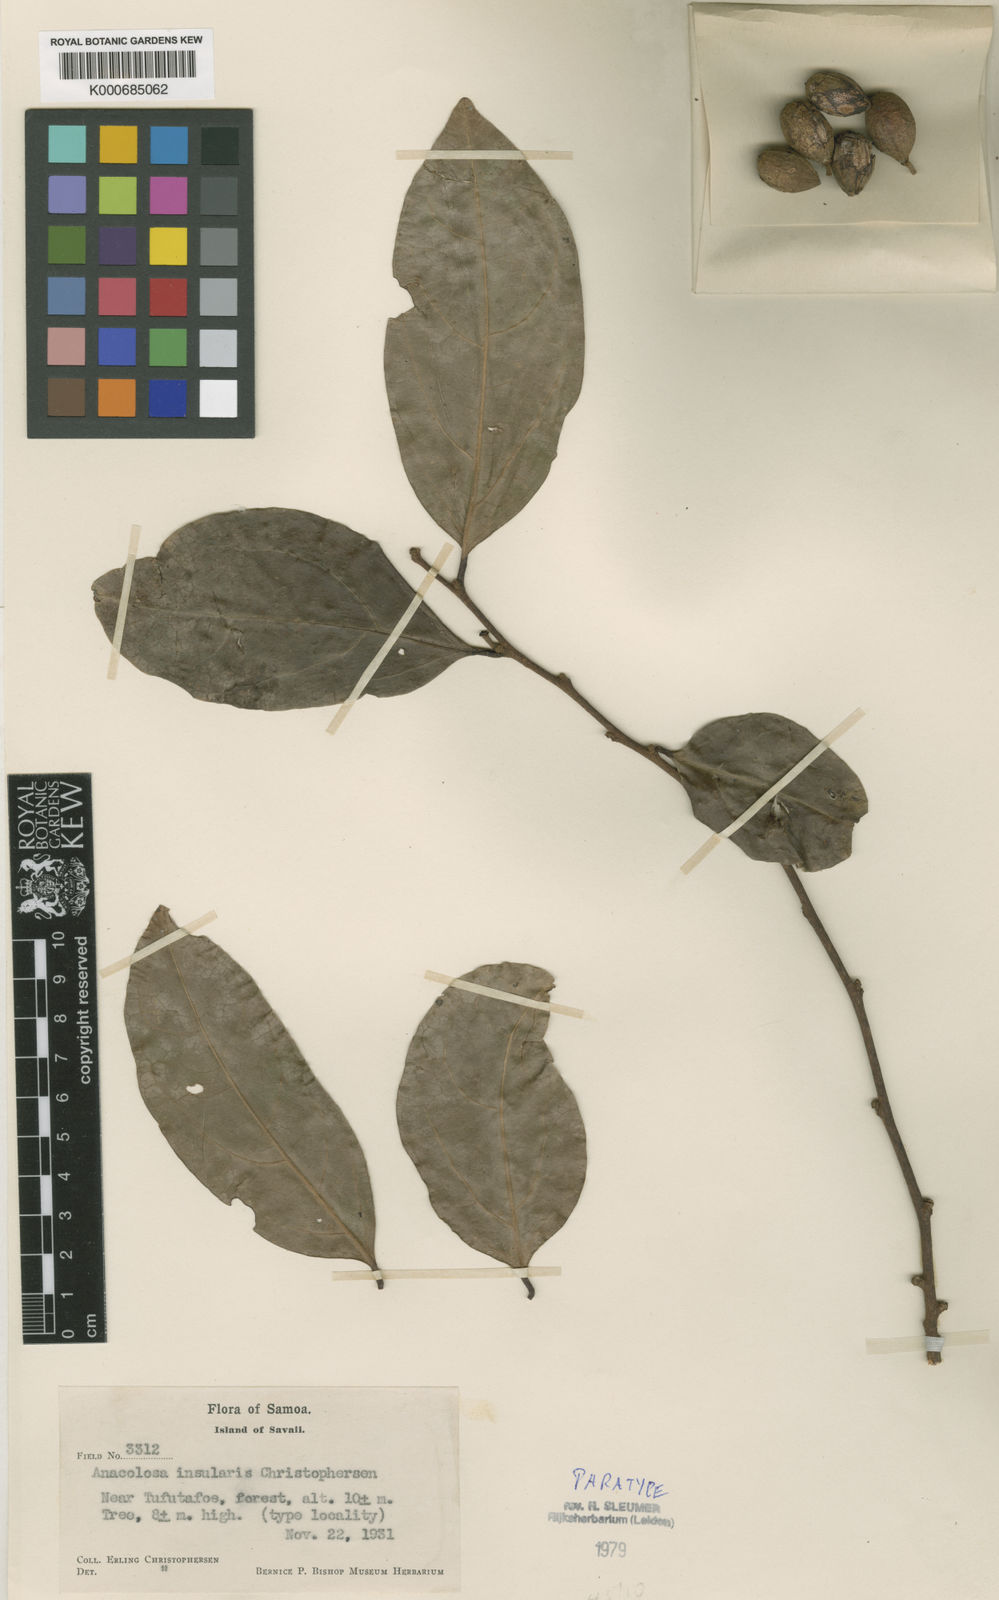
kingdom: Plantae
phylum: Tracheophyta
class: Magnoliopsida
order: Santalales
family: Aptandraceae
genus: Anacolosa
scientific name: Anacolosa insularis
